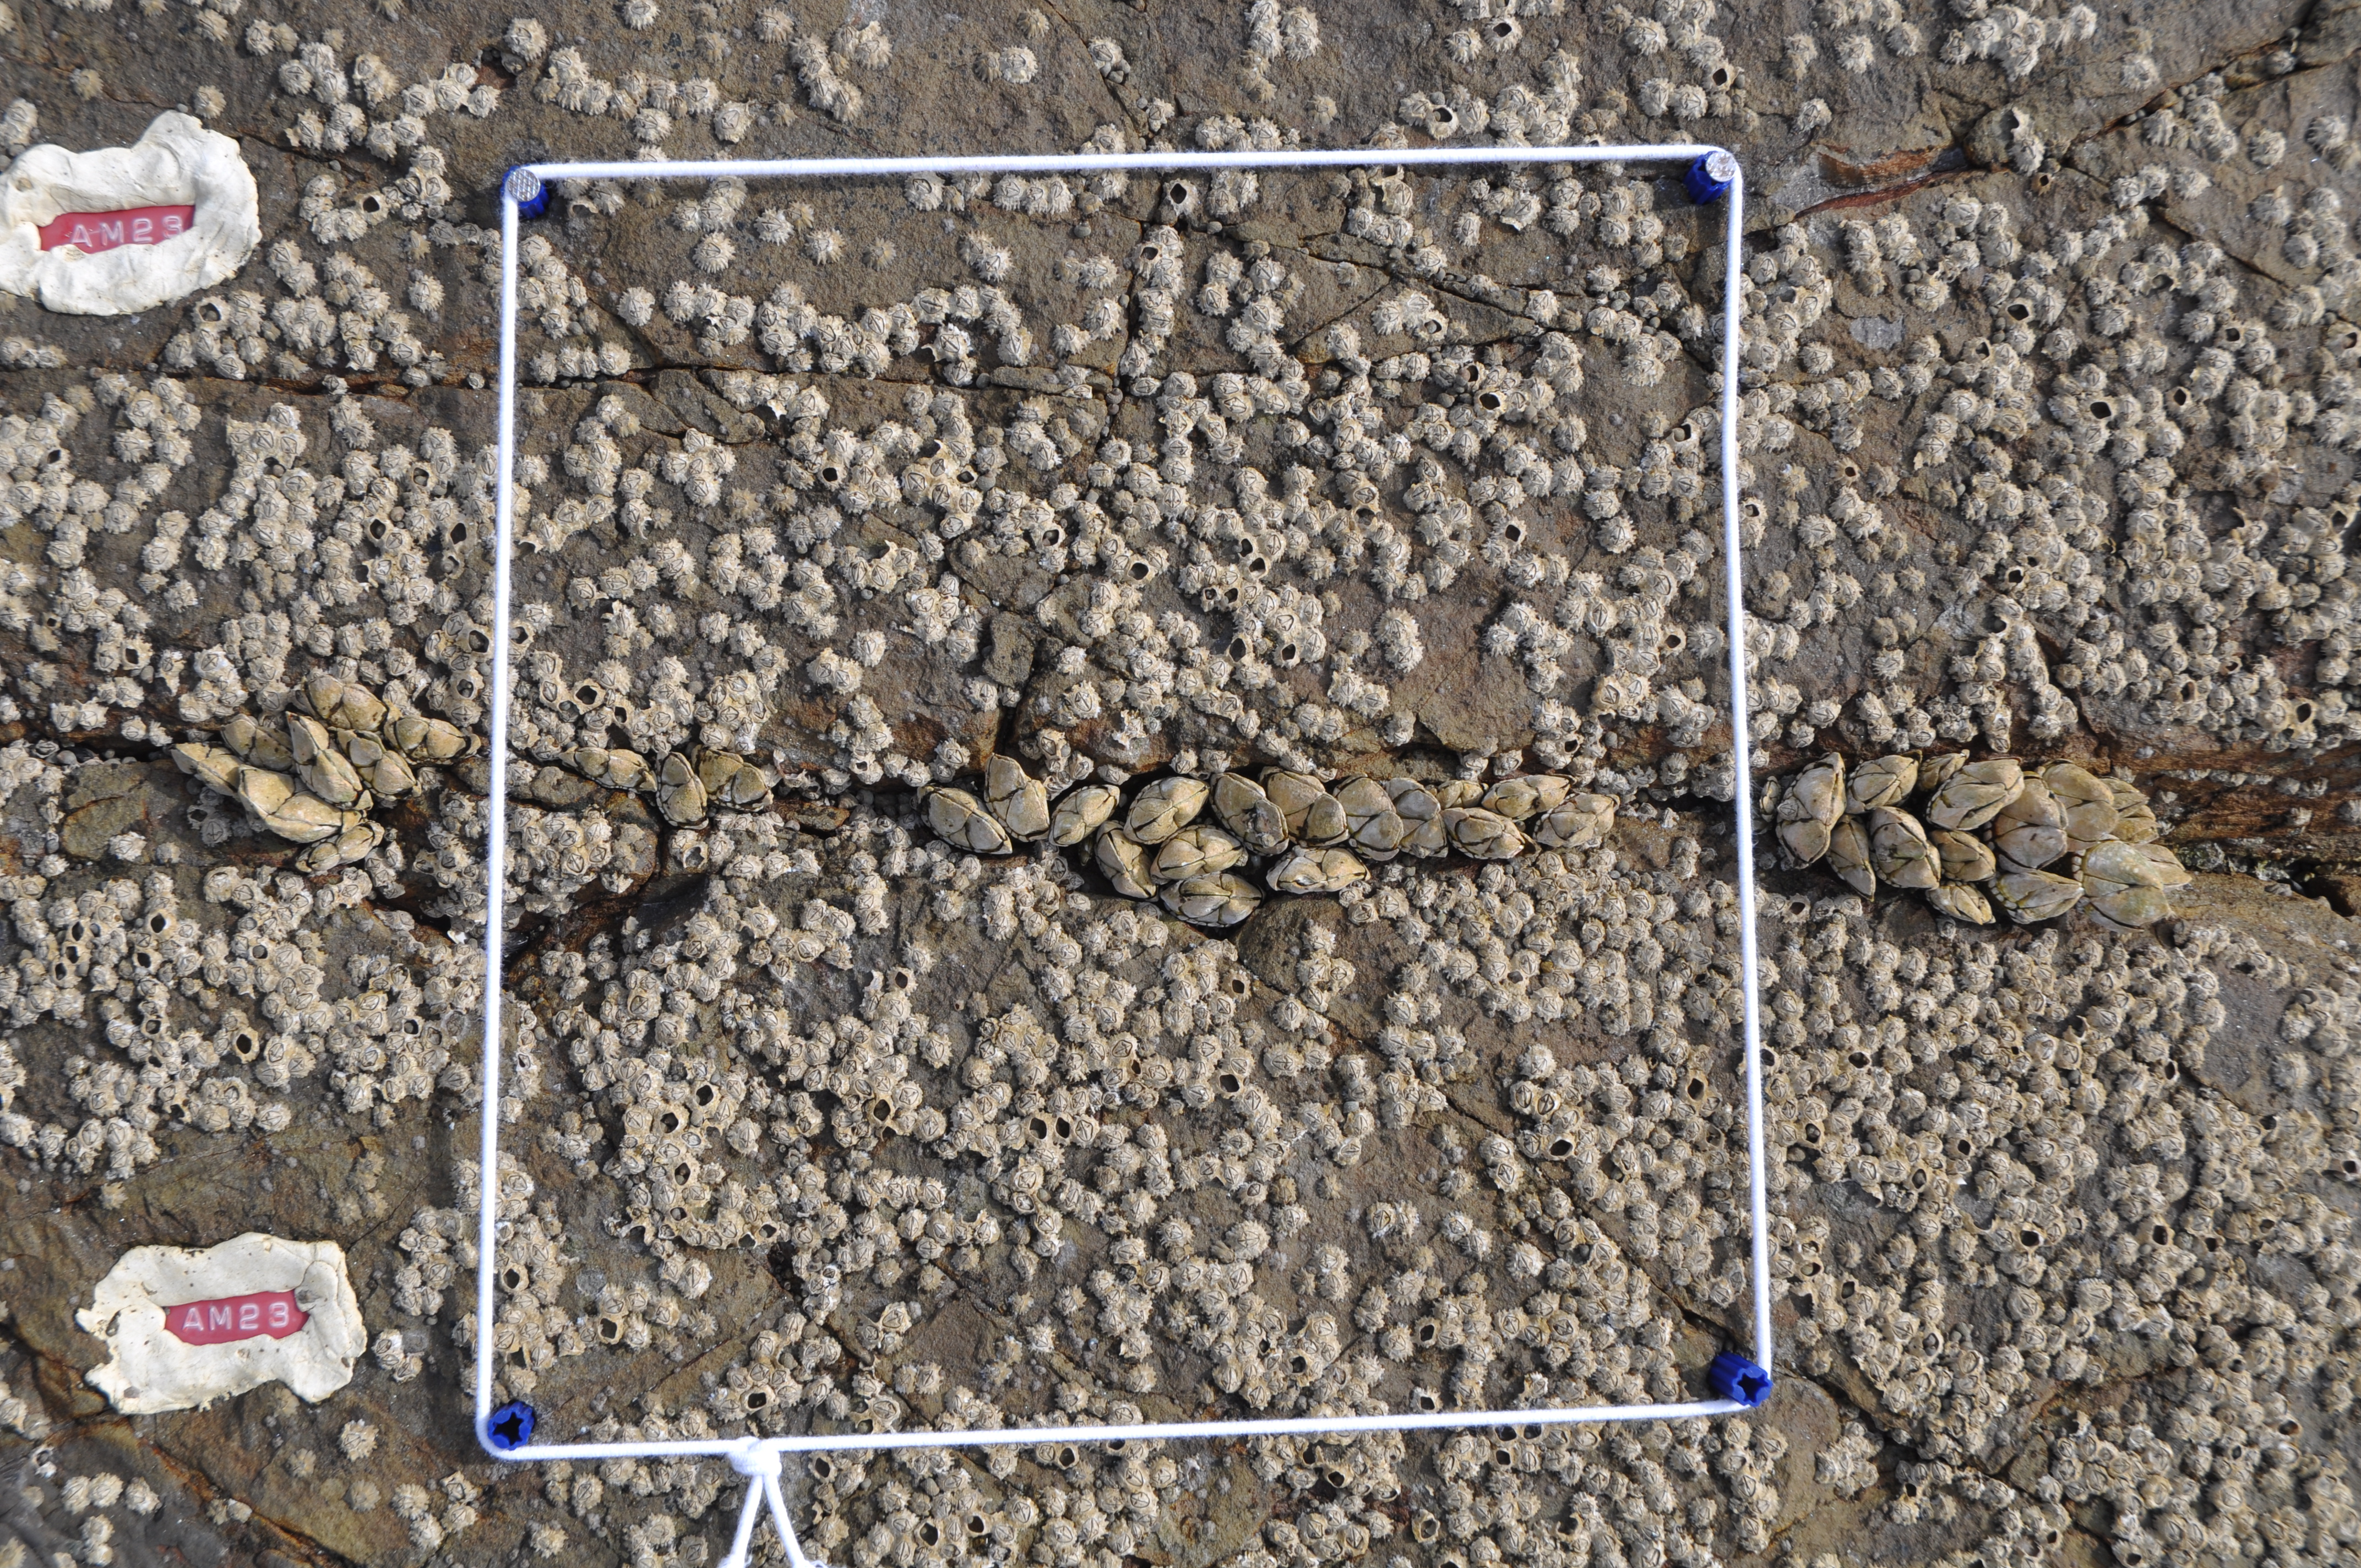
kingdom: Animalia
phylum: Arthropoda
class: Maxillopoda
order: Sessilia
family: Chthamalidae
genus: Chthamalus
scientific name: Chthamalus challengeri
